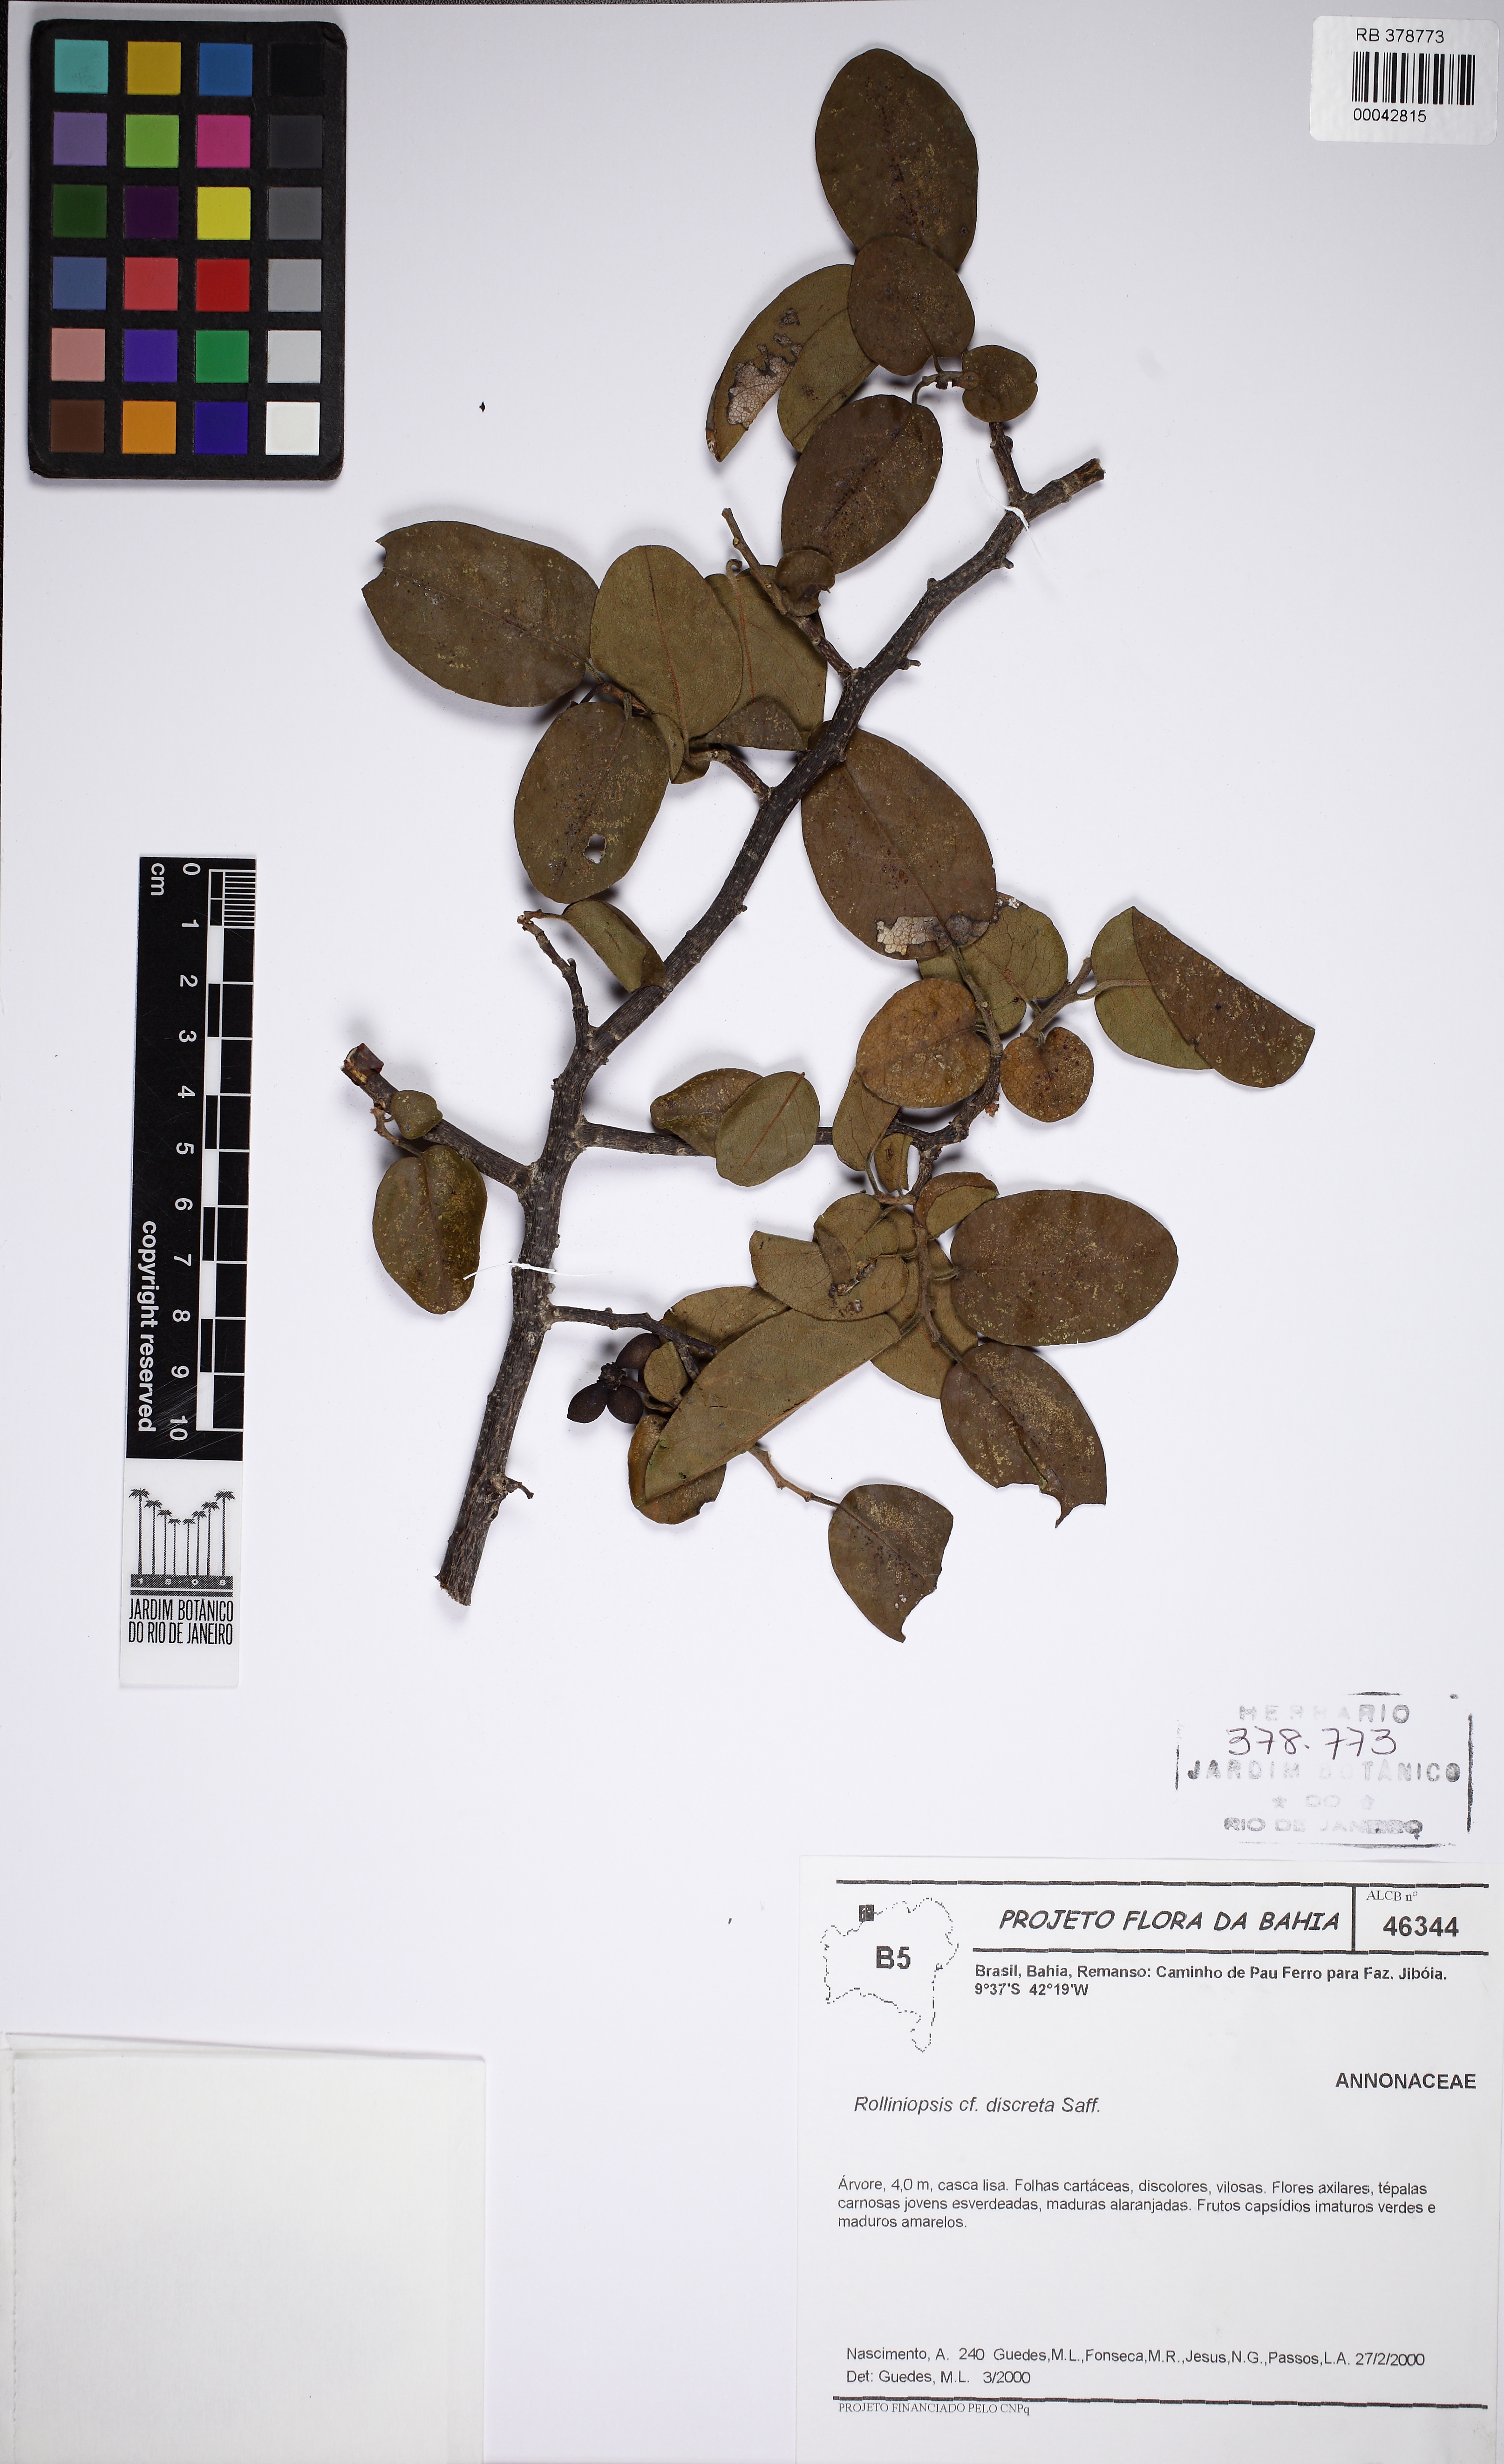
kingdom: Plantae
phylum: Tracheophyta
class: Magnoliopsida
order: Magnoliales
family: Annonaceae
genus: Annona
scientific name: Annona leptopetala
